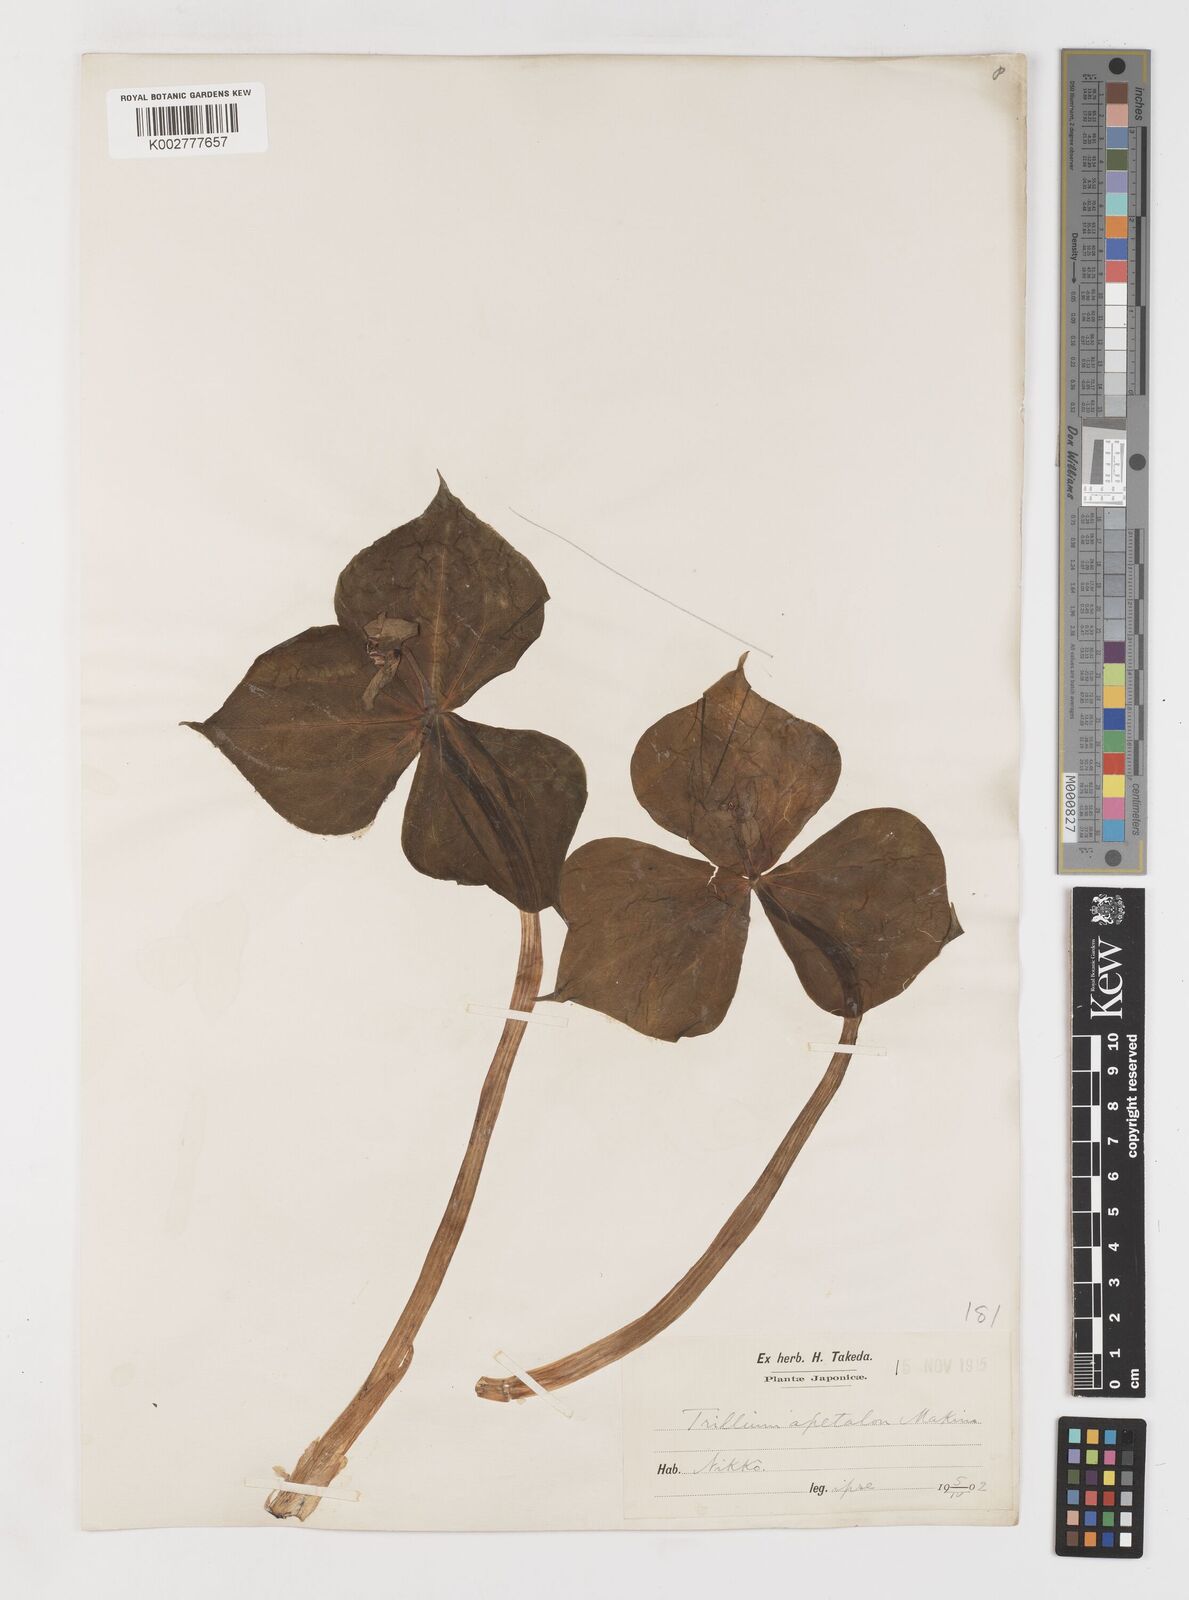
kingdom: Plantae
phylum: Tracheophyta
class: Liliopsida
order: Liliales
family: Melanthiaceae
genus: Trillium
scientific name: Trillium smallii
